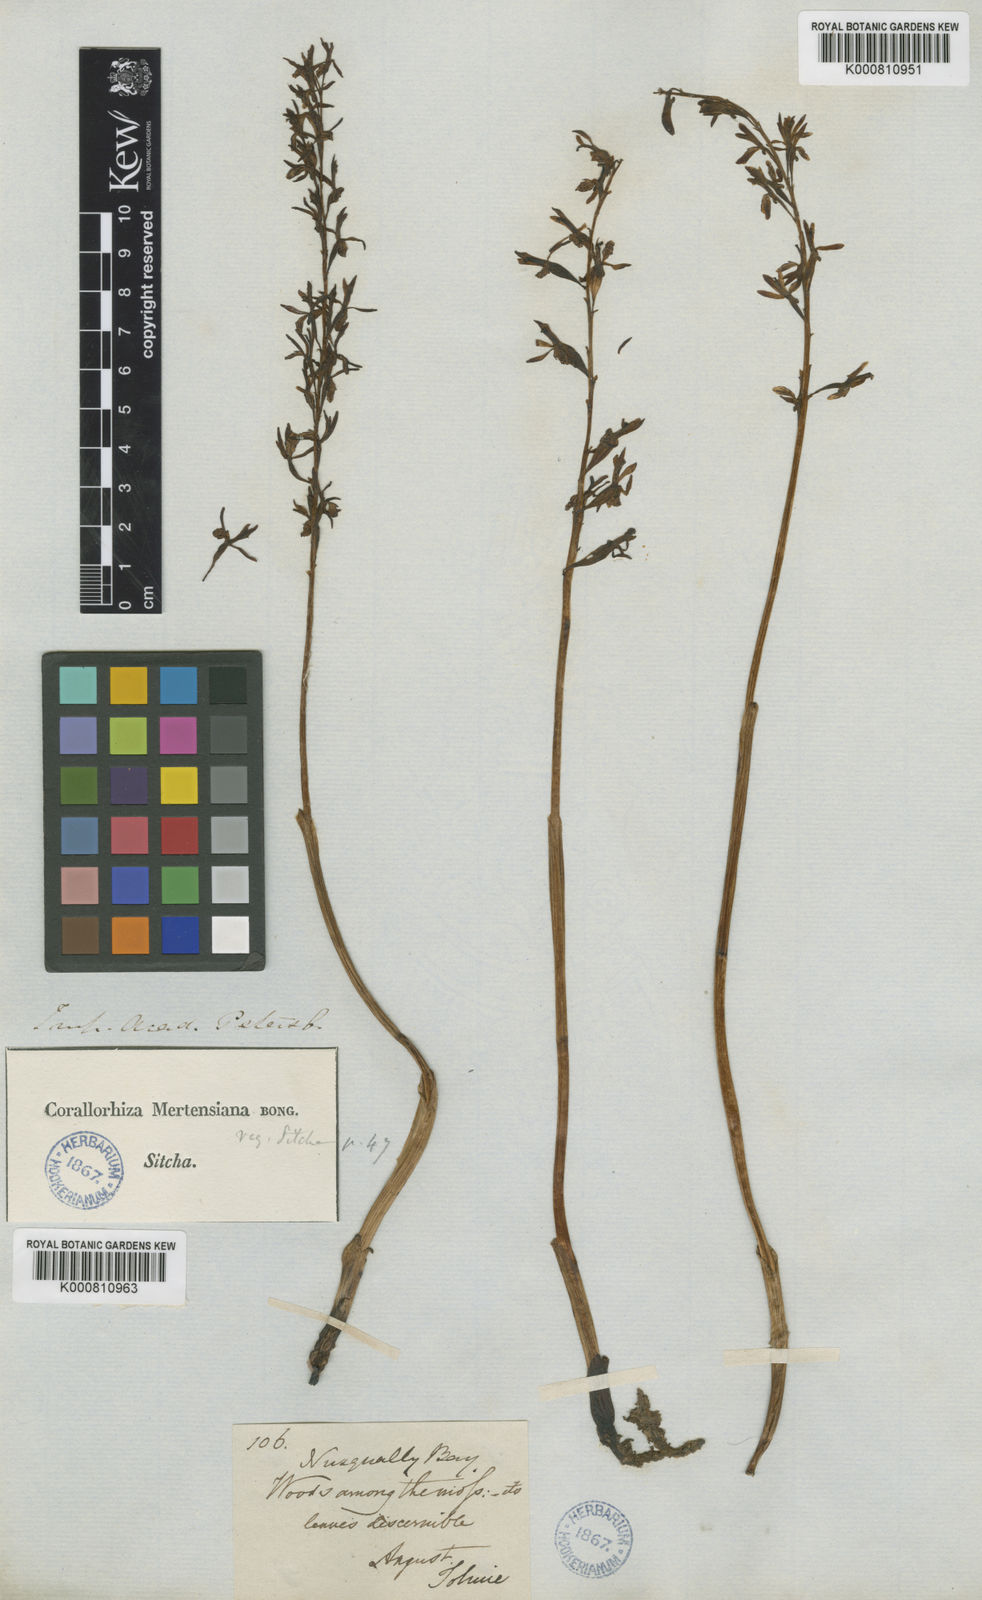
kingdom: Plantae
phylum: Tracheophyta
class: Liliopsida
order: Asparagales
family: Orchidaceae
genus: Corallorhiza
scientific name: Corallorhiza mertensiana
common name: Pacific coralroot
